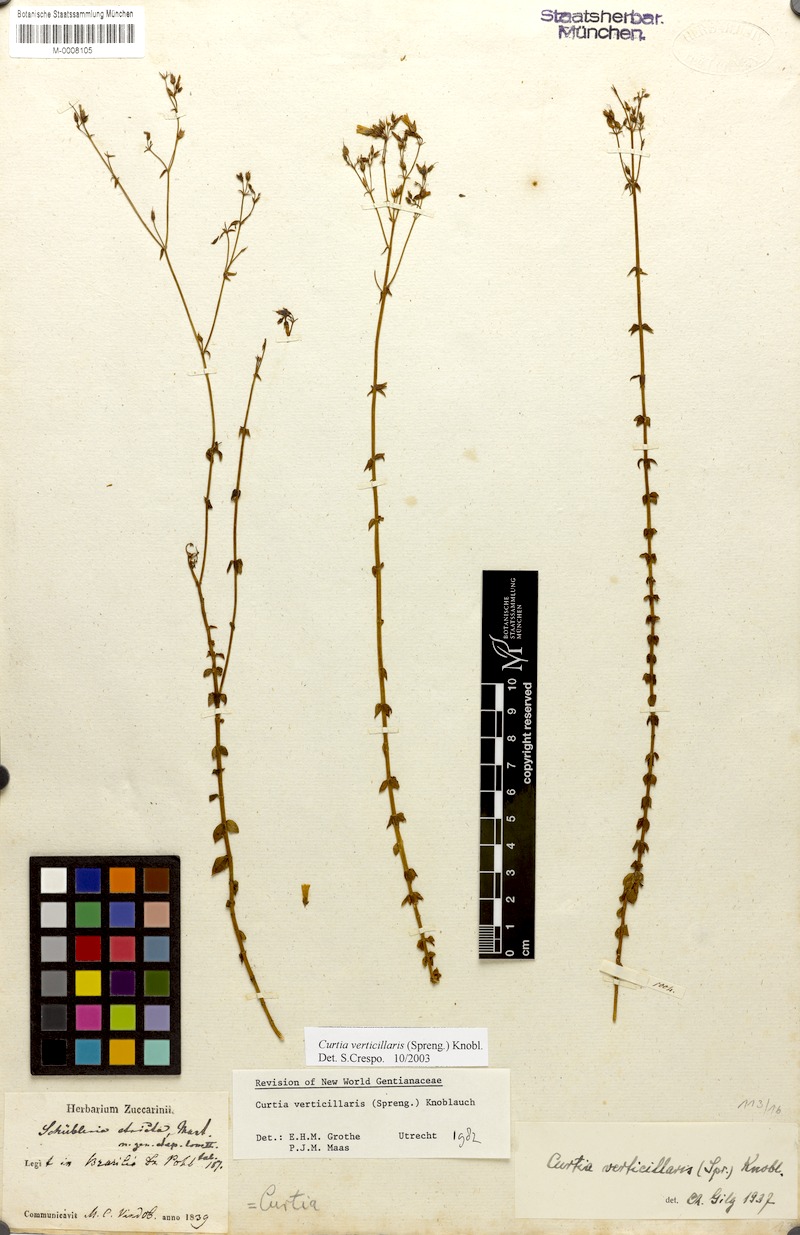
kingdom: Plantae
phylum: Tracheophyta
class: Magnoliopsida
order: Gentianales
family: Gentianaceae
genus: Curtia
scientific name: Curtia verticillaris
